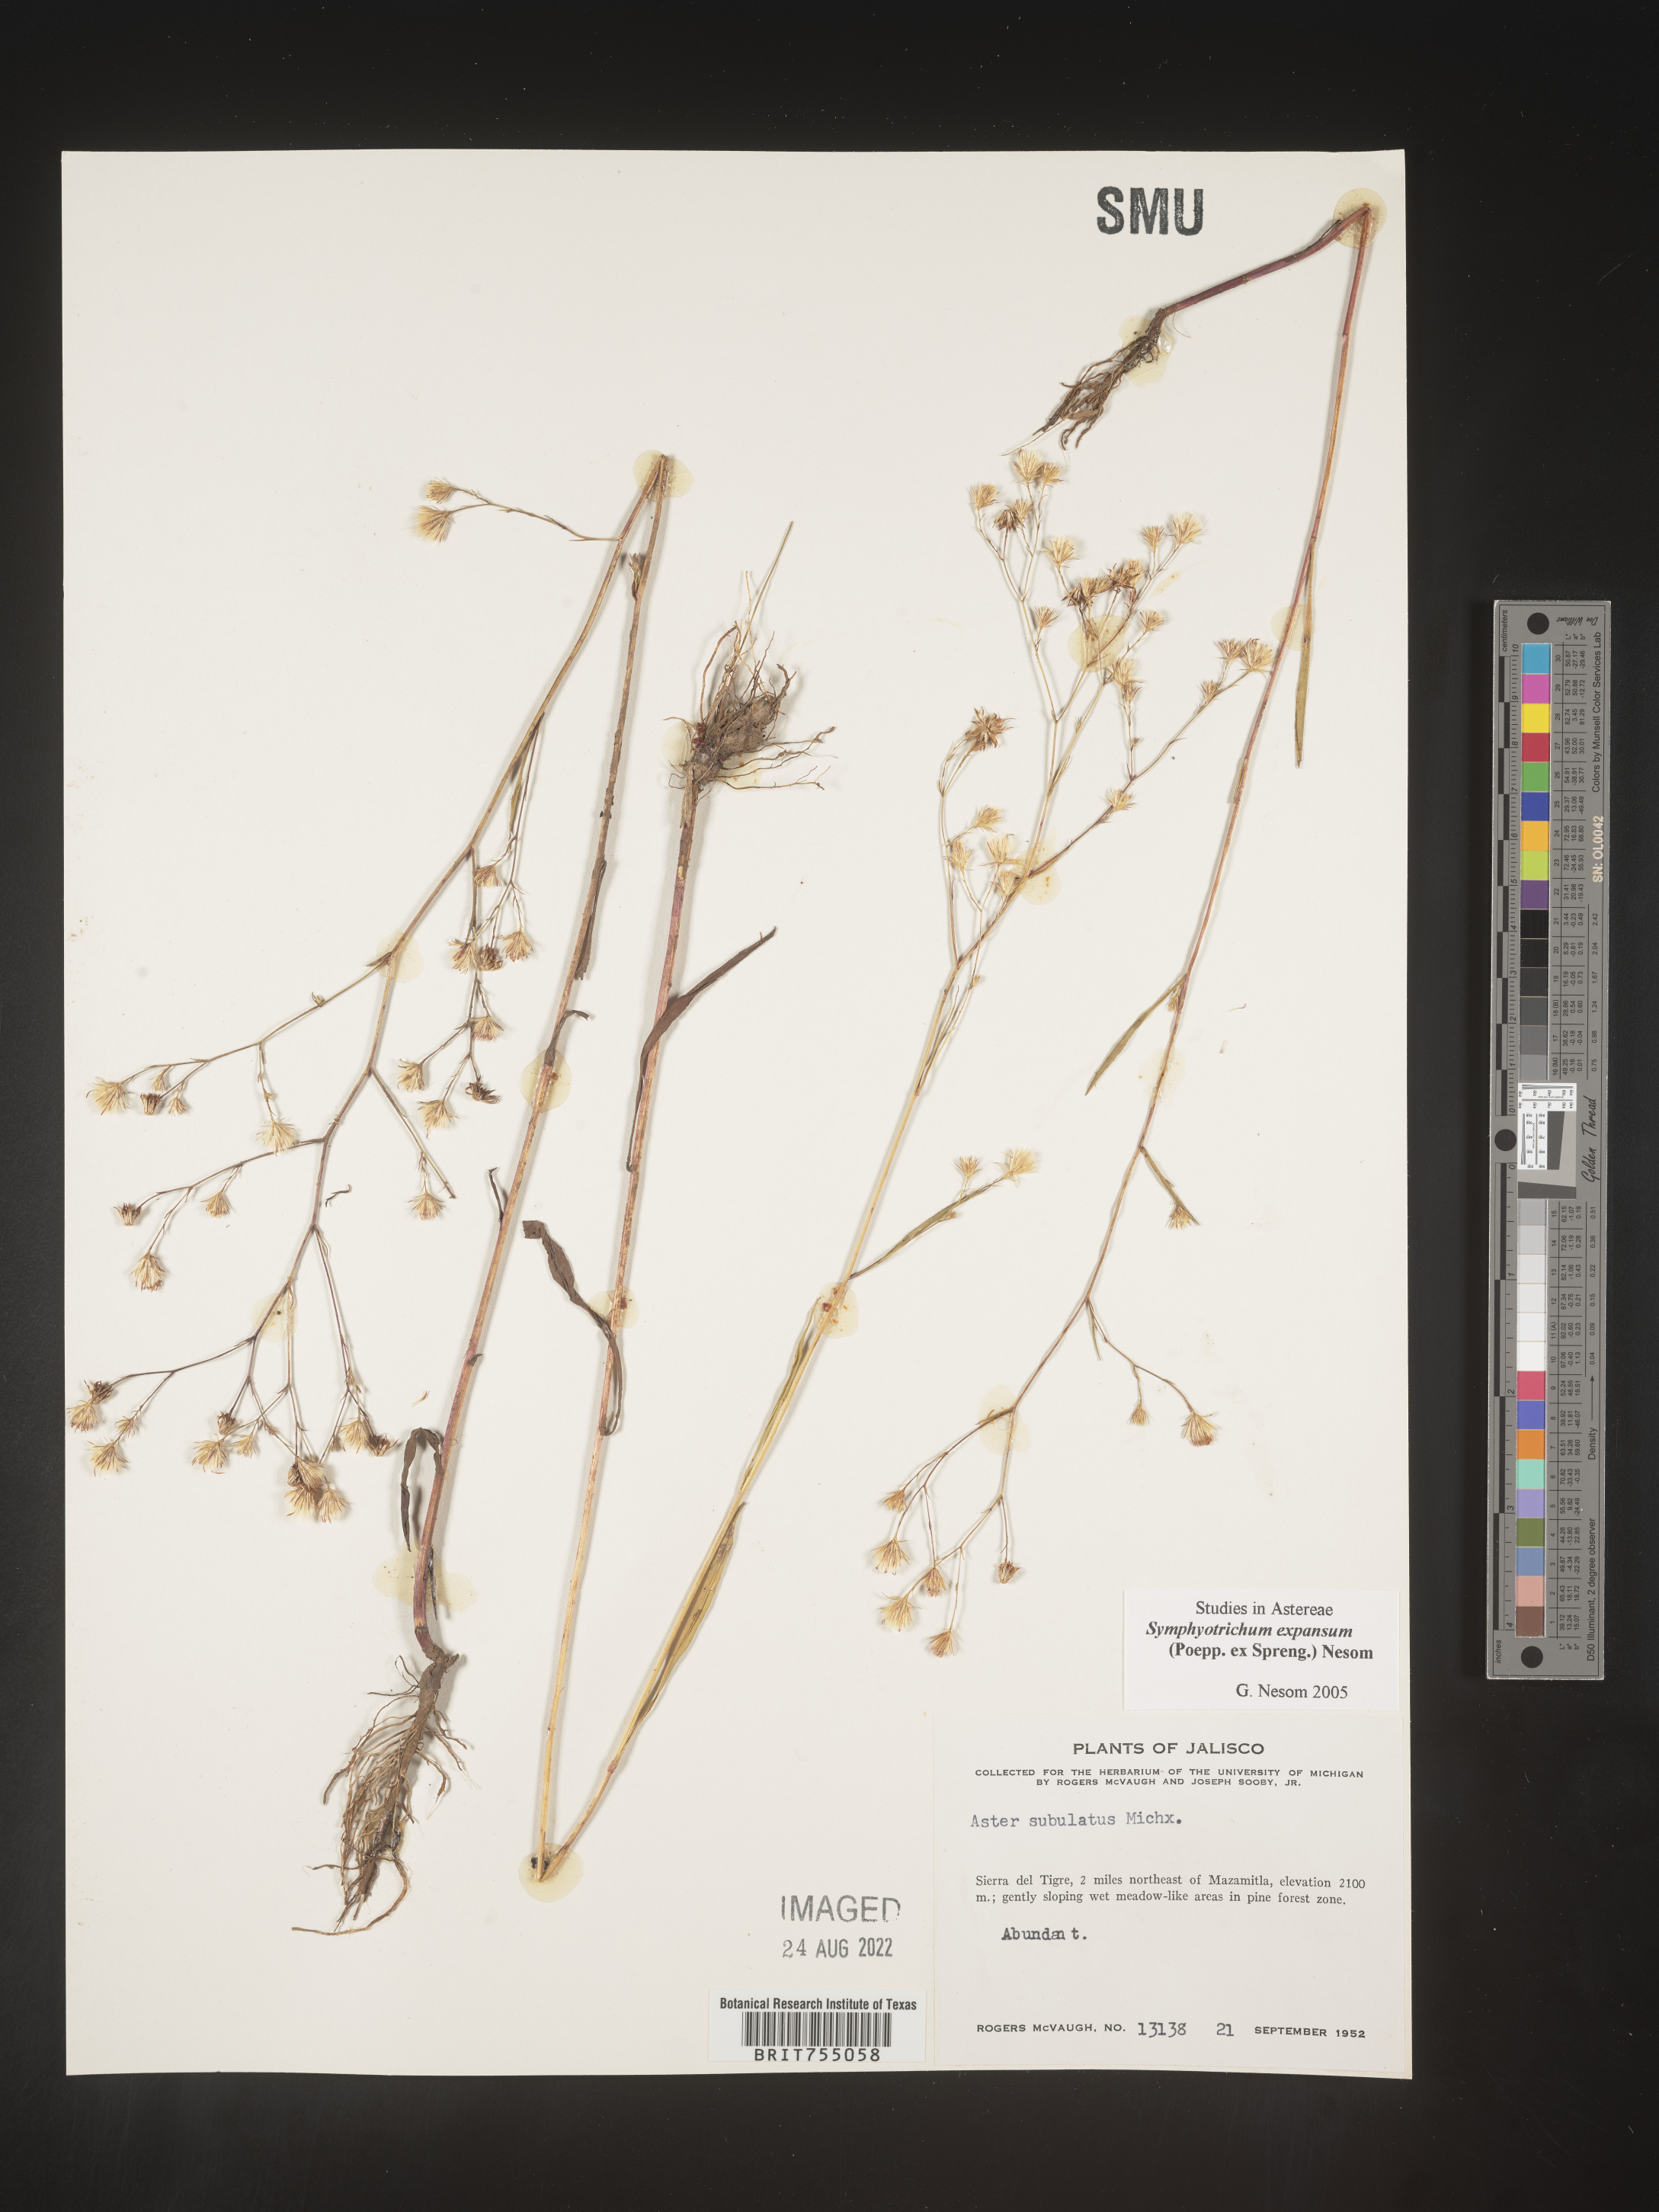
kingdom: Plantae
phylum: Tracheophyta
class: Magnoliopsida
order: Asterales
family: Asteraceae
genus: Symphyotrichum
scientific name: Symphyotrichum expansum
